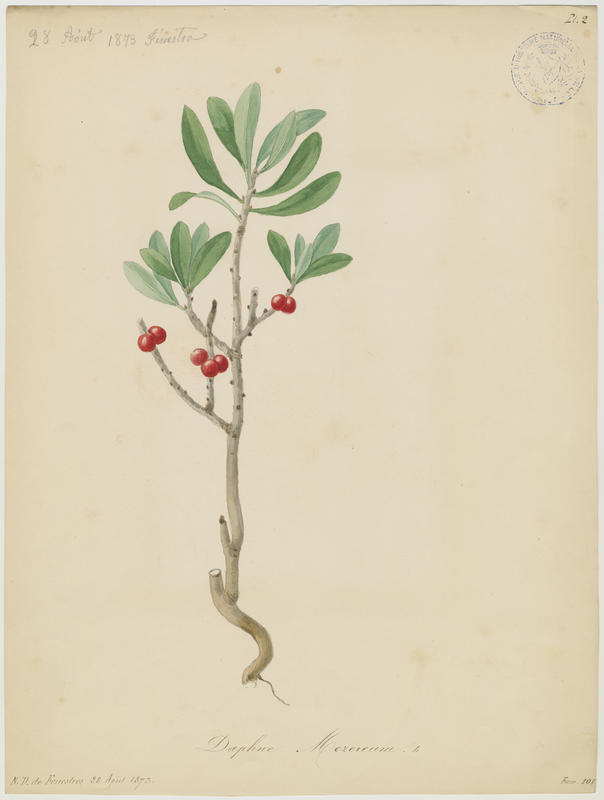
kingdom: Plantae
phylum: Tracheophyta
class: Magnoliopsida
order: Malvales
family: Thymelaeaceae
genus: Daphne
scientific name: Daphne mezereum
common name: Mezereon
